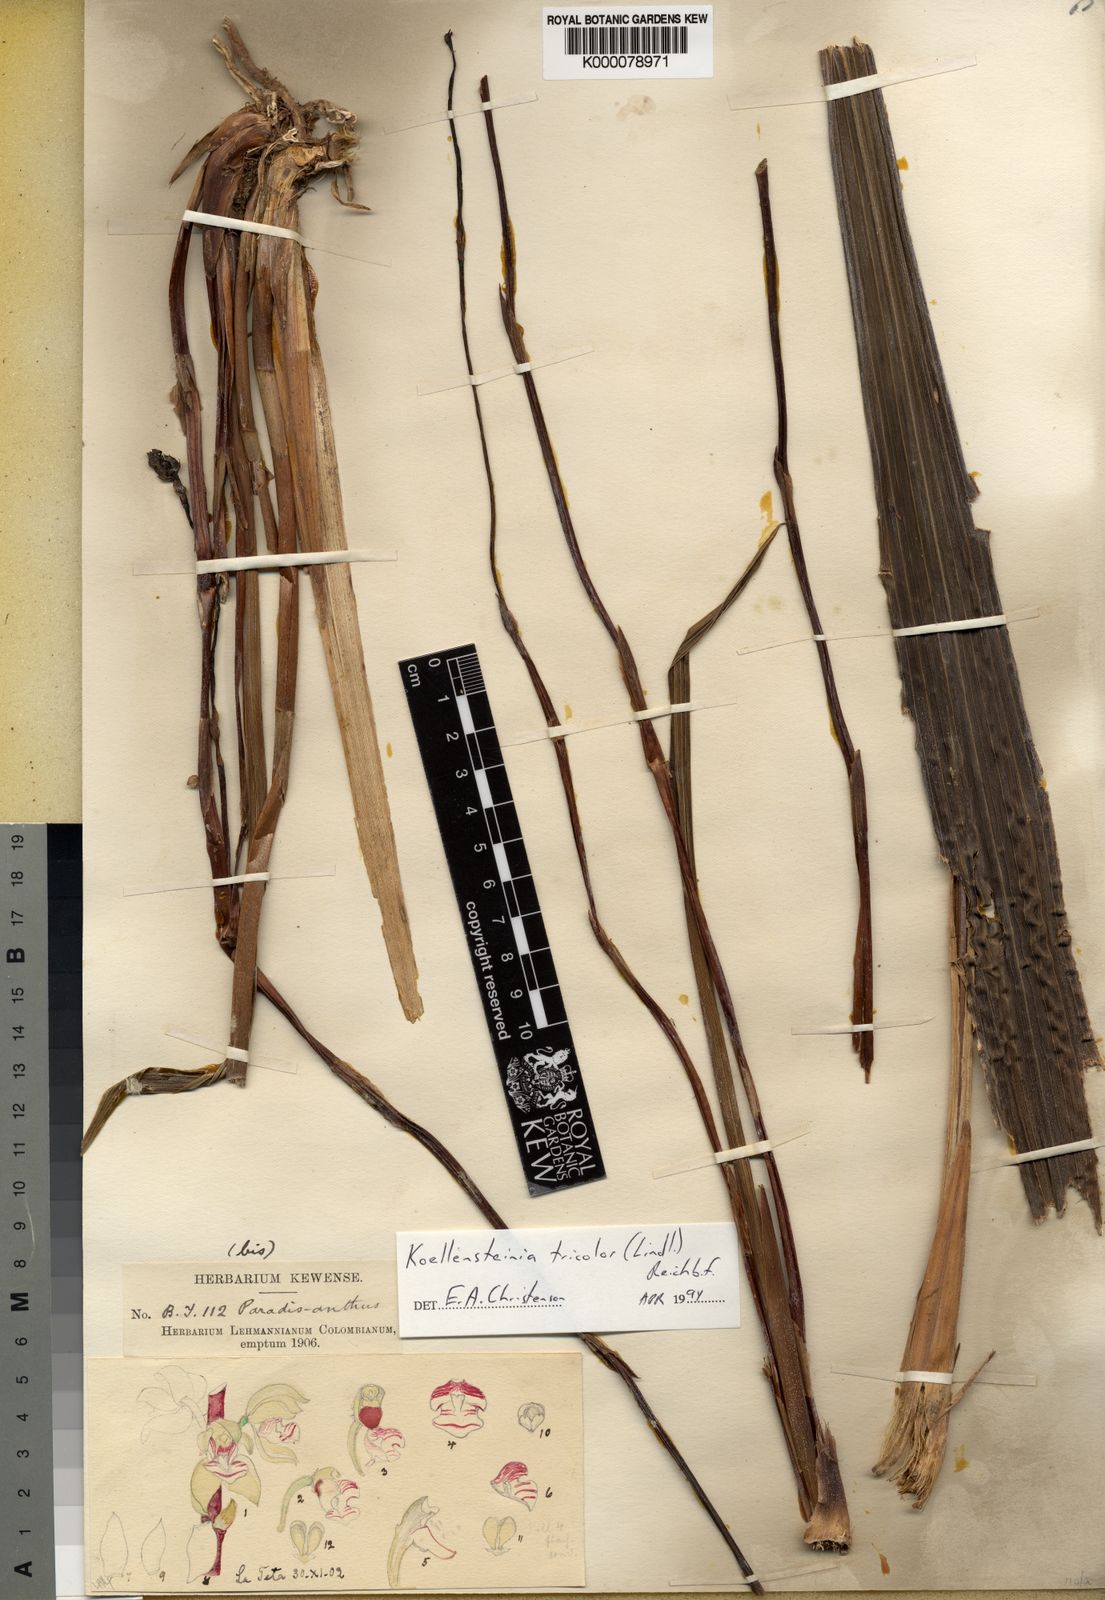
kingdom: Plantae
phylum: Tracheophyta
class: Liliopsida
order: Asparagales
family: Orchidaceae
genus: Koellensteinia
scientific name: Koellensteinia tricolor
